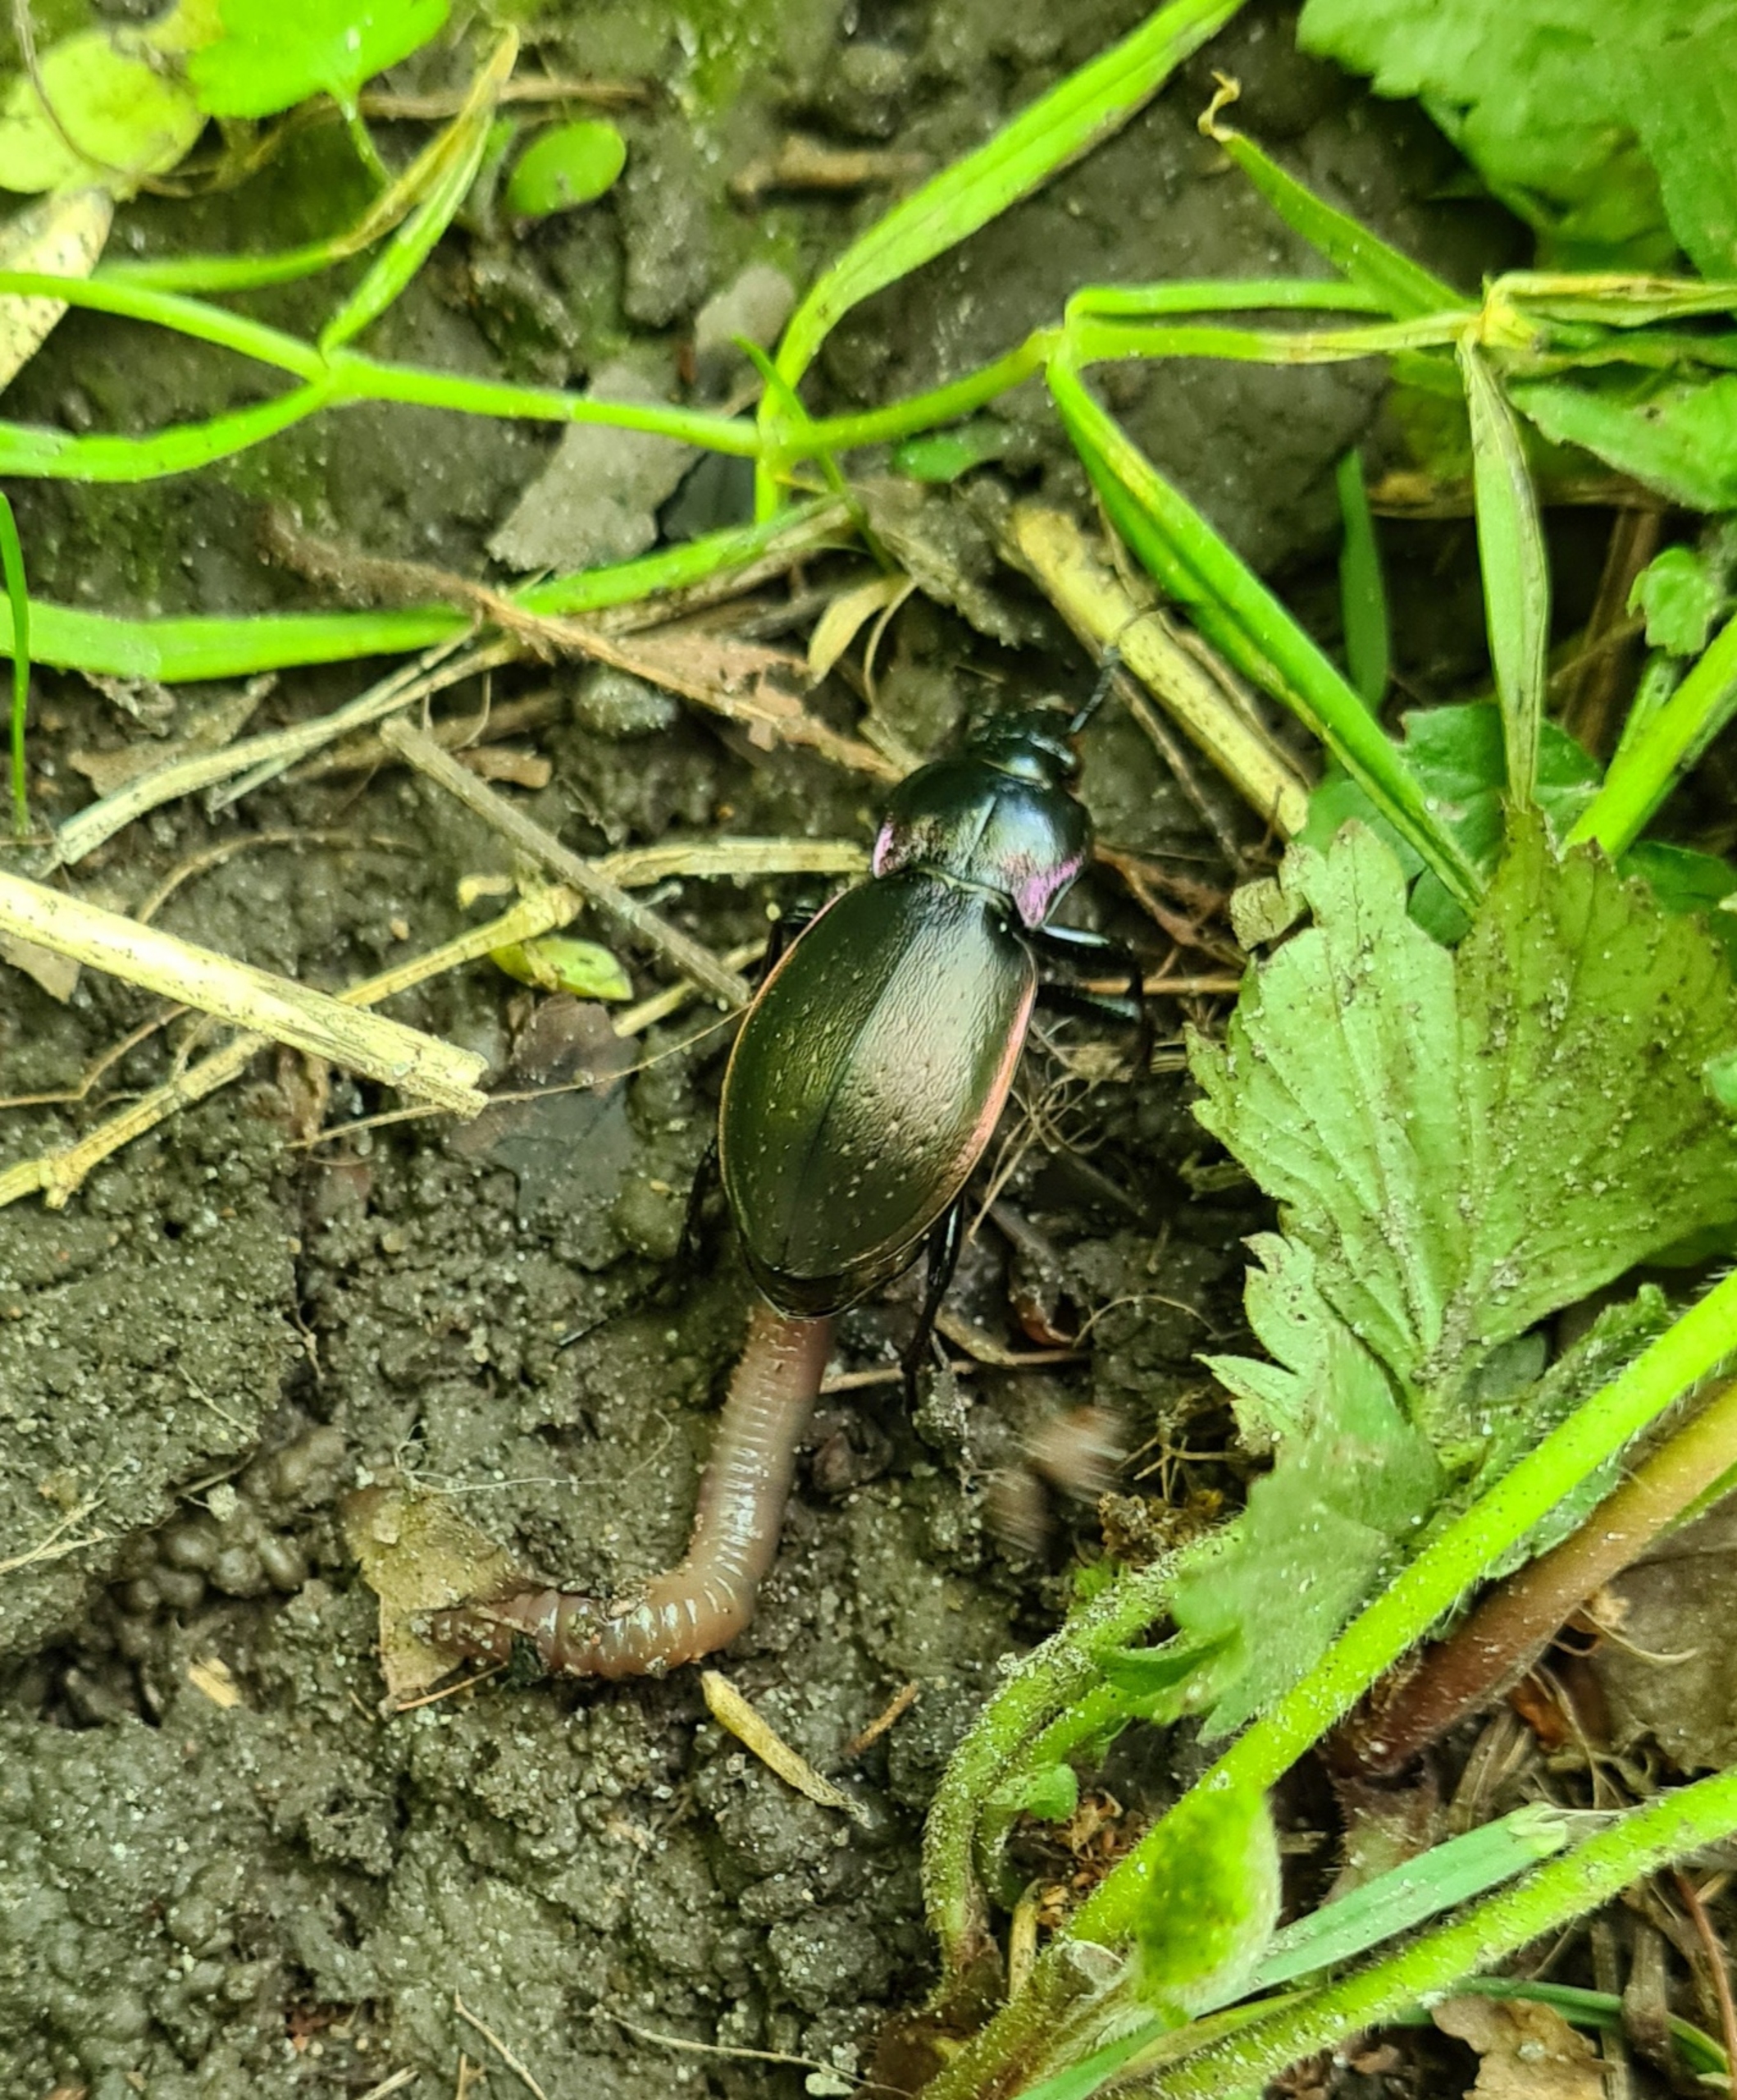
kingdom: Animalia
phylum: Arthropoda
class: Insecta
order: Coleoptera
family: Carabidae
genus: Carabus
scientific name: Carabus nemoralis
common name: Kratløber
